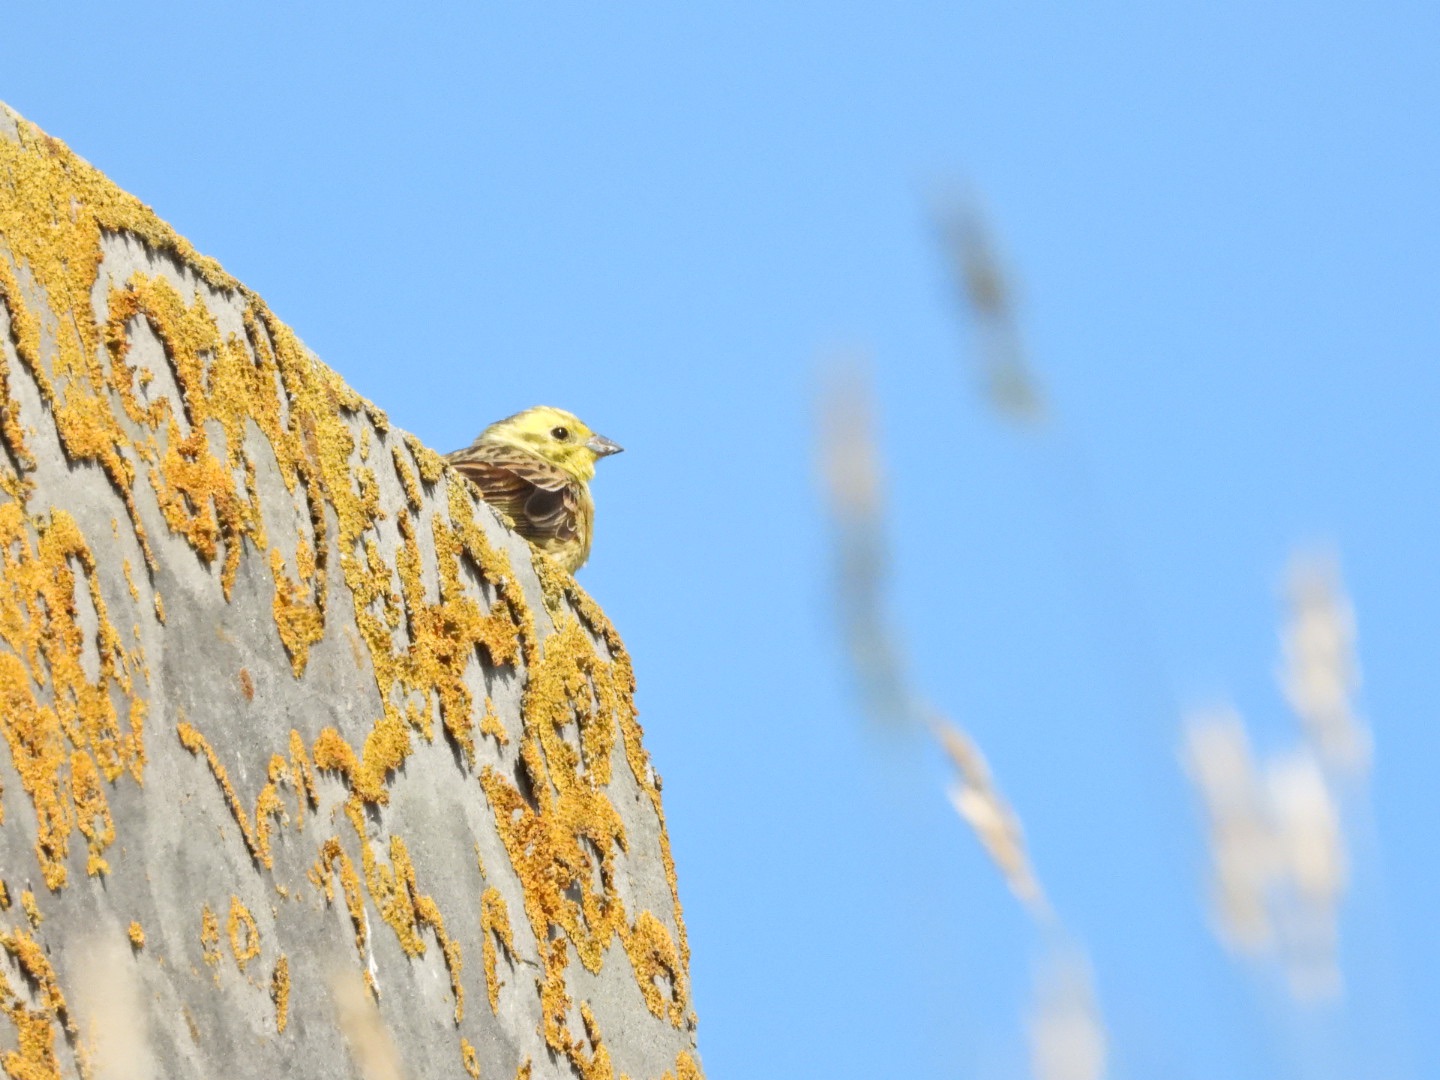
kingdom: Animalia
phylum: Chordata
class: Aves
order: Passeriformes
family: Emberizidae
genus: Emberiza
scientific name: Emberiza citrinella
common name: Gulspurv
